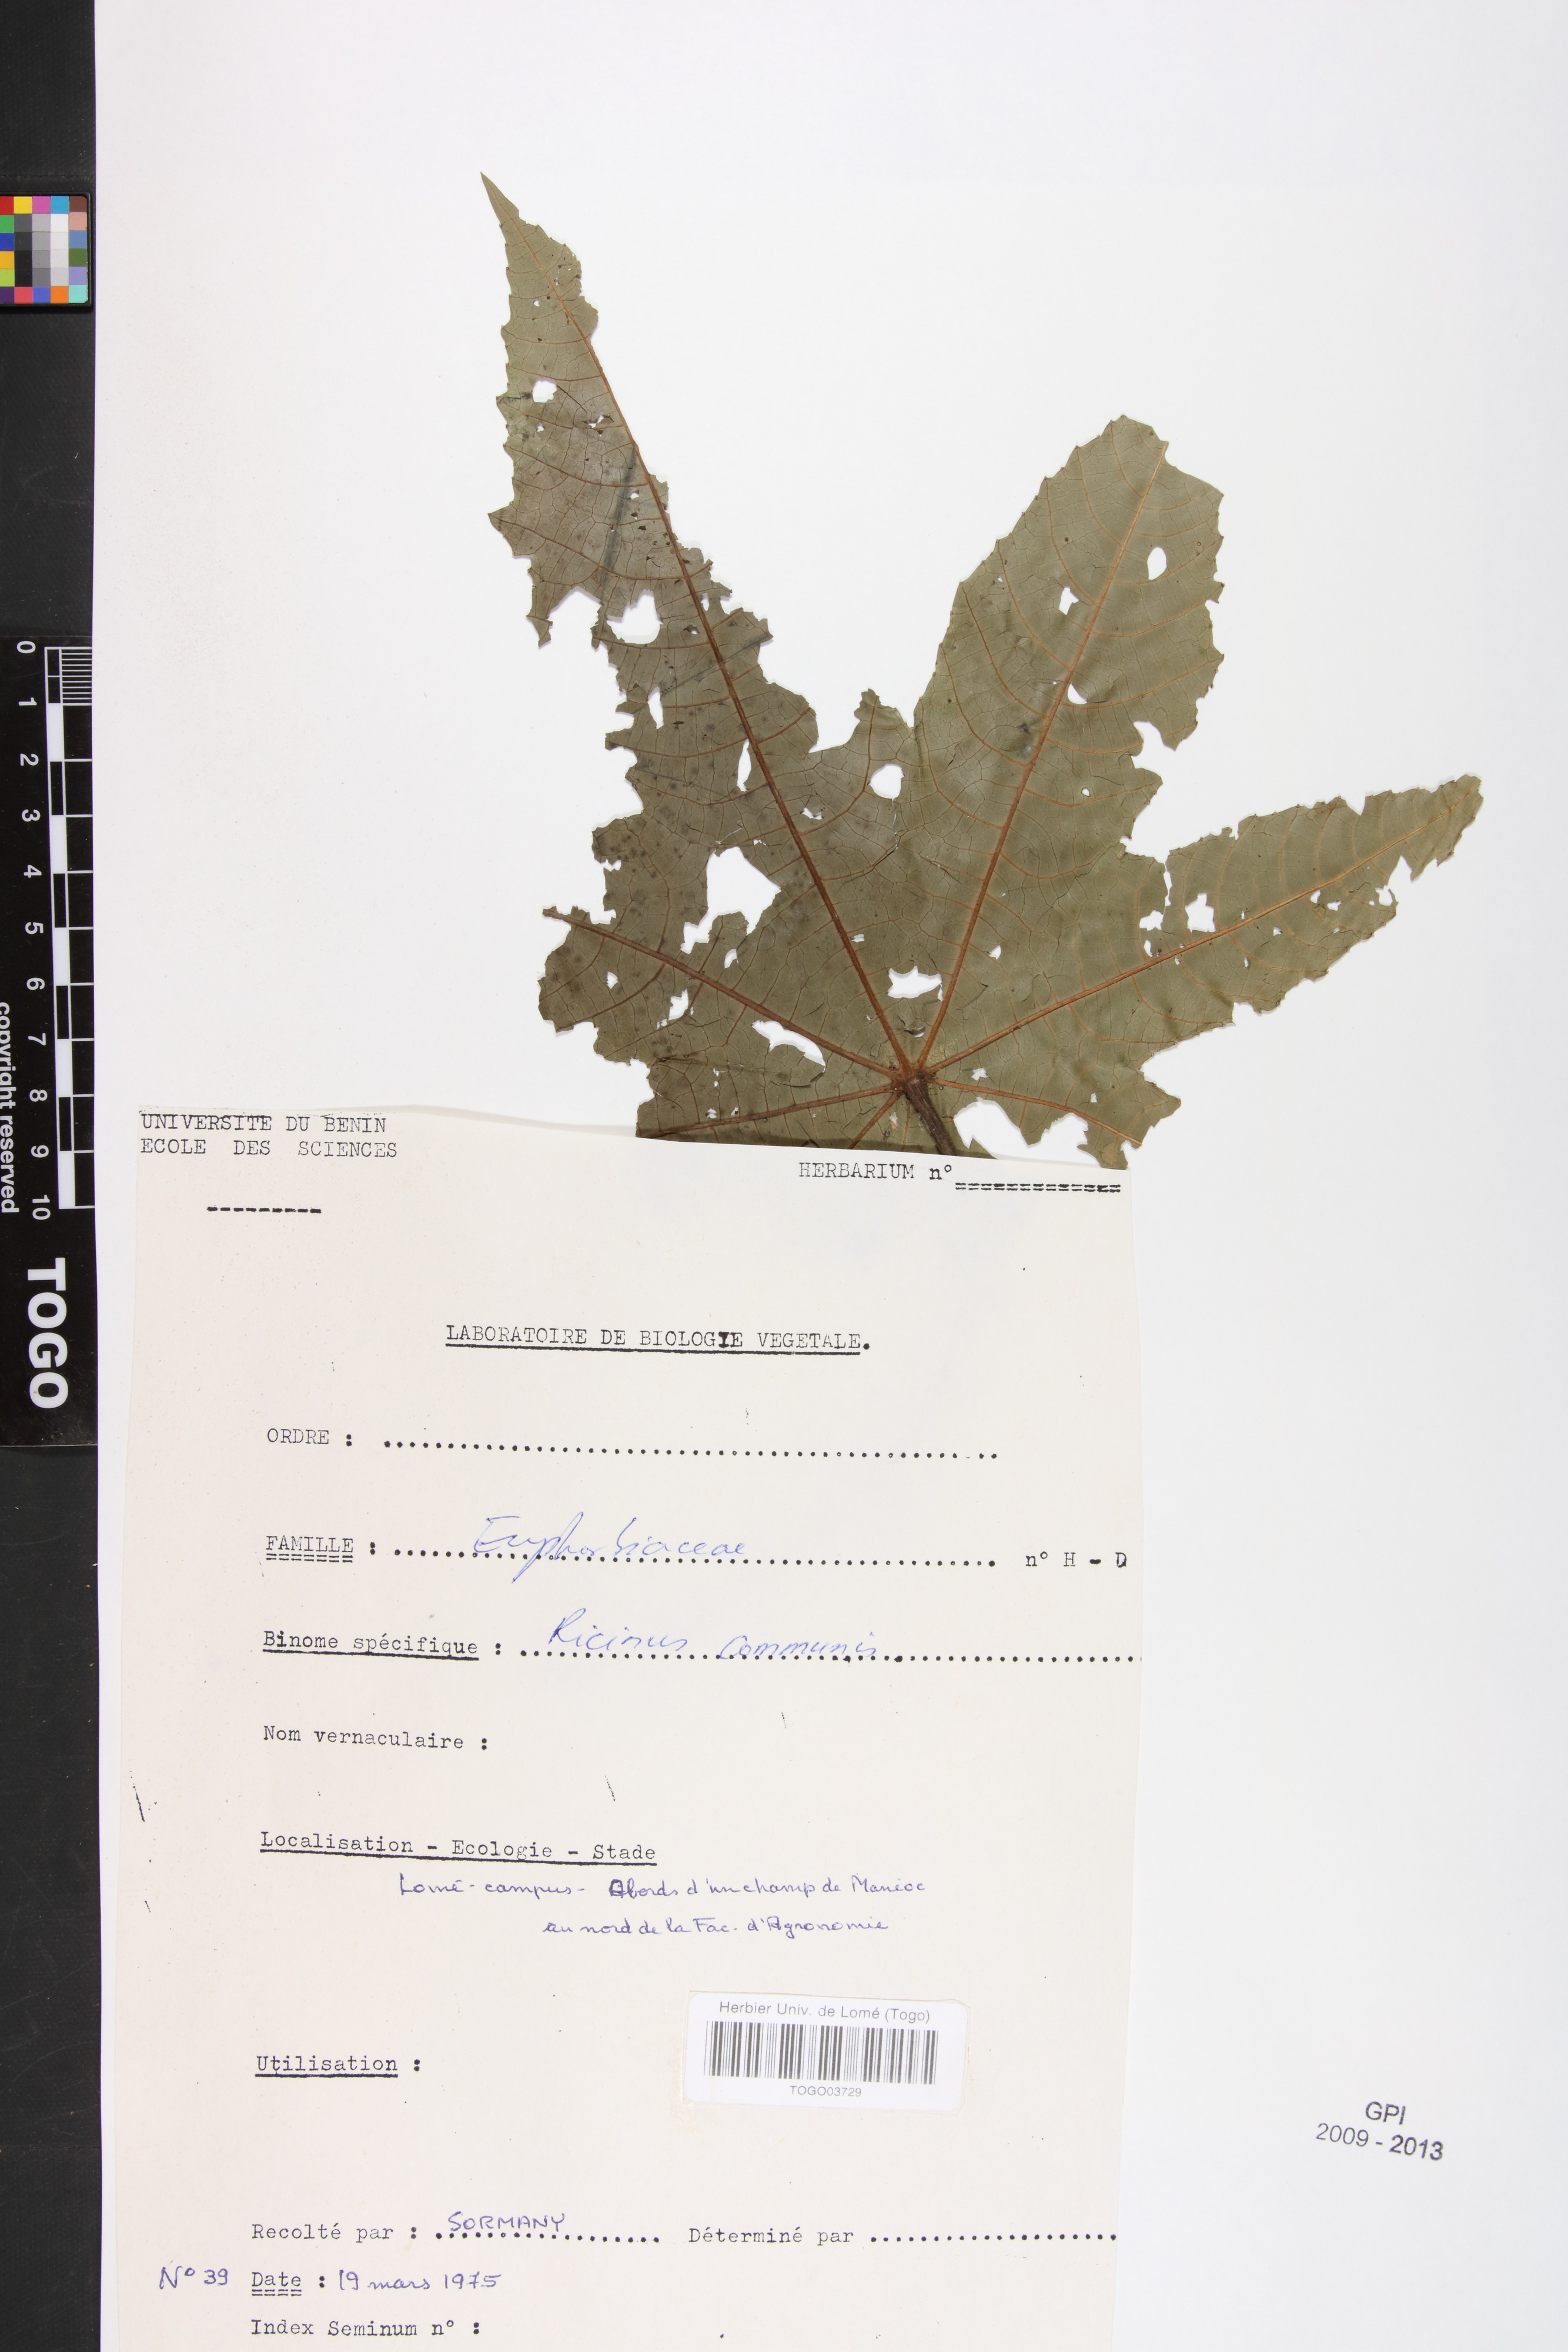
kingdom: Plantae
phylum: Tracheophyta
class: Magnoliopsida
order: Malpighiales
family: Euphorbiaceae
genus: Ricinus
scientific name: Ricinus communis
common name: Castor-oil-plant
